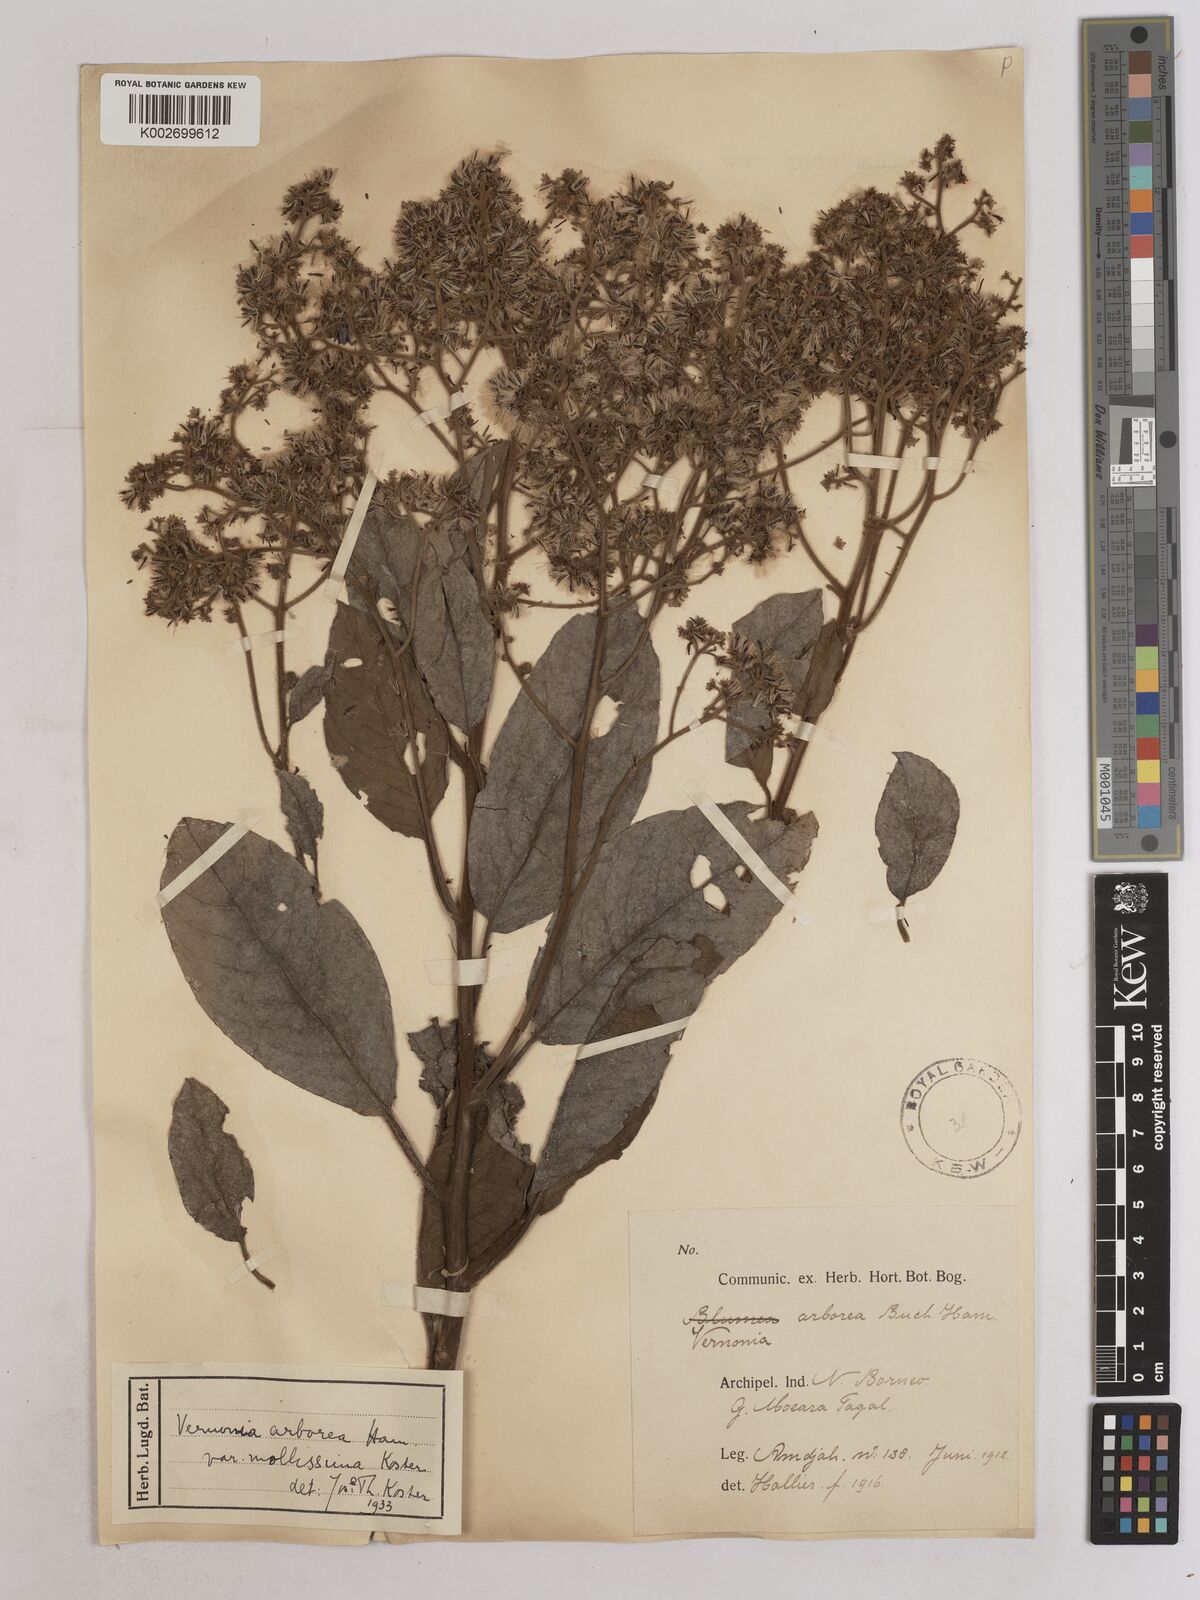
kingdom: Plantae
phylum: Tracheophyta
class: Magnoliopsida
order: Asterales
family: Asteraceae
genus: Strobocalyx
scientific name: Strobocalyx arborea
